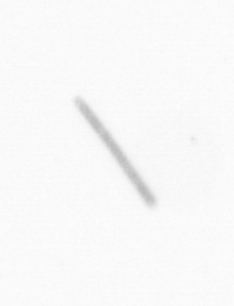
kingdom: Chromista
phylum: Ochrophyta
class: Bacillariophyceae
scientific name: Bacillariophyceae
